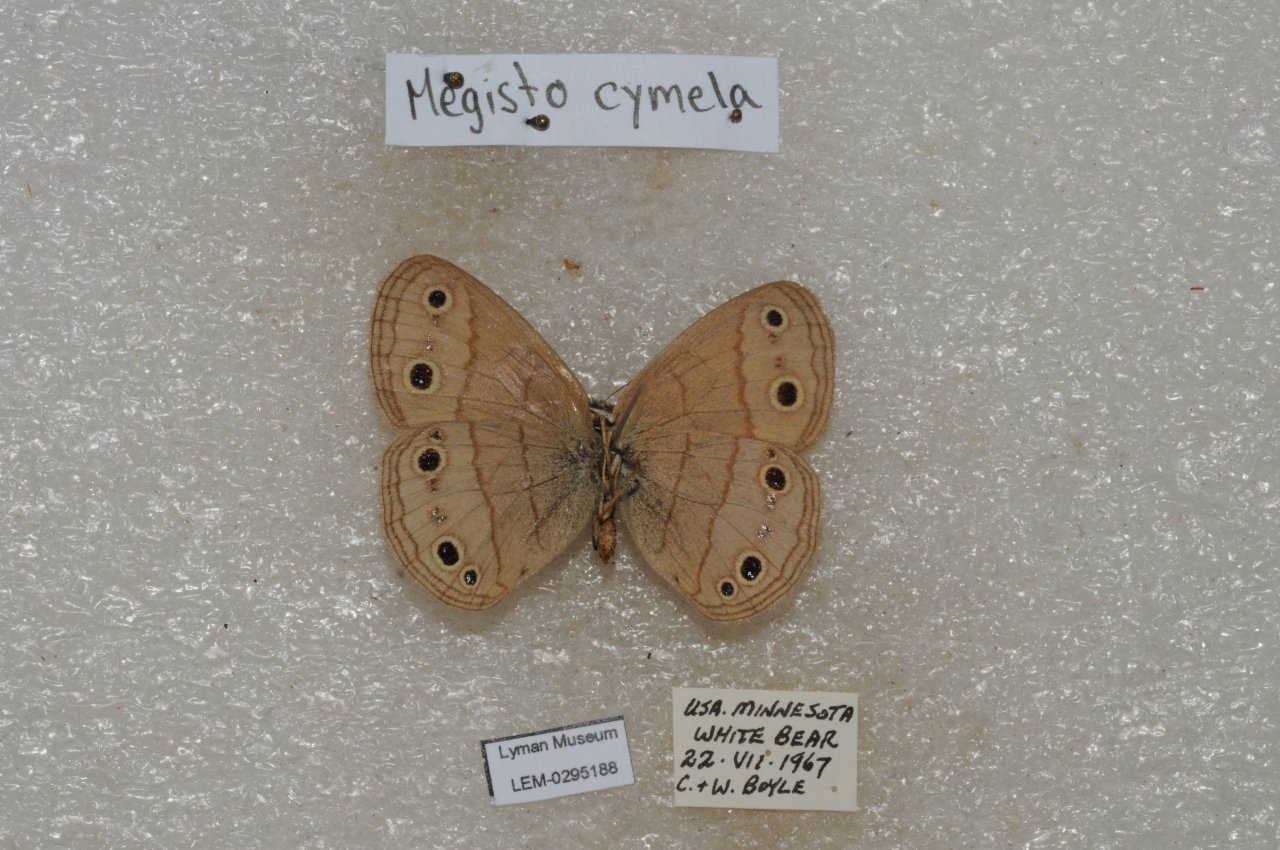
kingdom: Animalia
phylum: Arthropoda
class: Insecta
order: Lepidoptera
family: Nymphalidae
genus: Euptychia
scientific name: Euptychia cymela
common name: Little Wood Satyr
